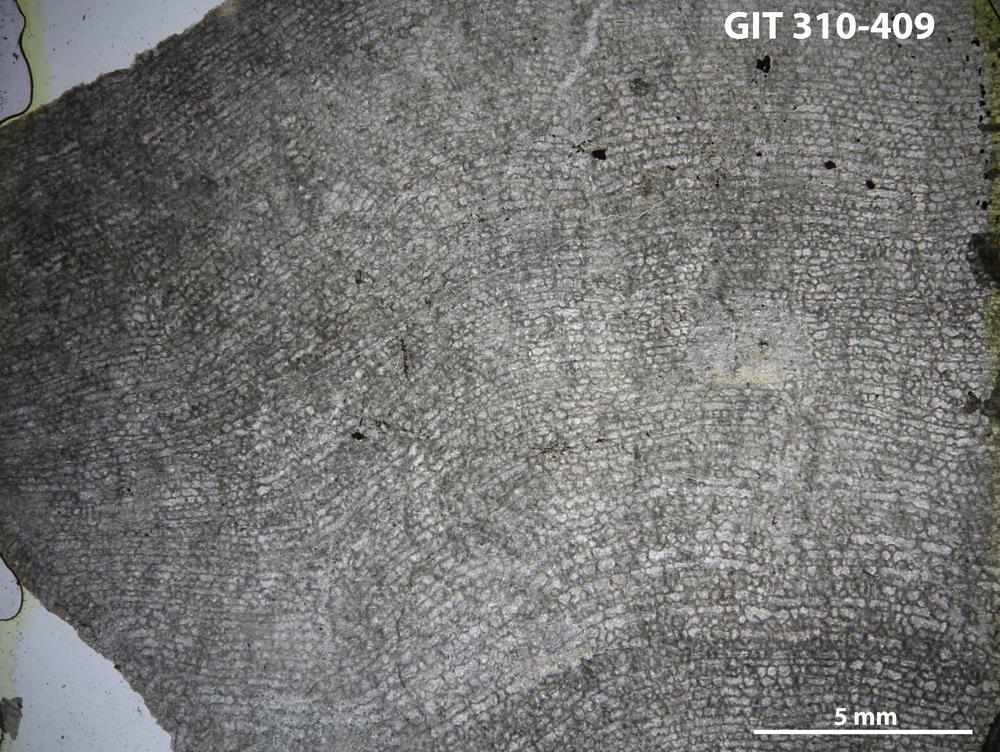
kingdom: Animalia
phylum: Porifera
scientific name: Porifera
